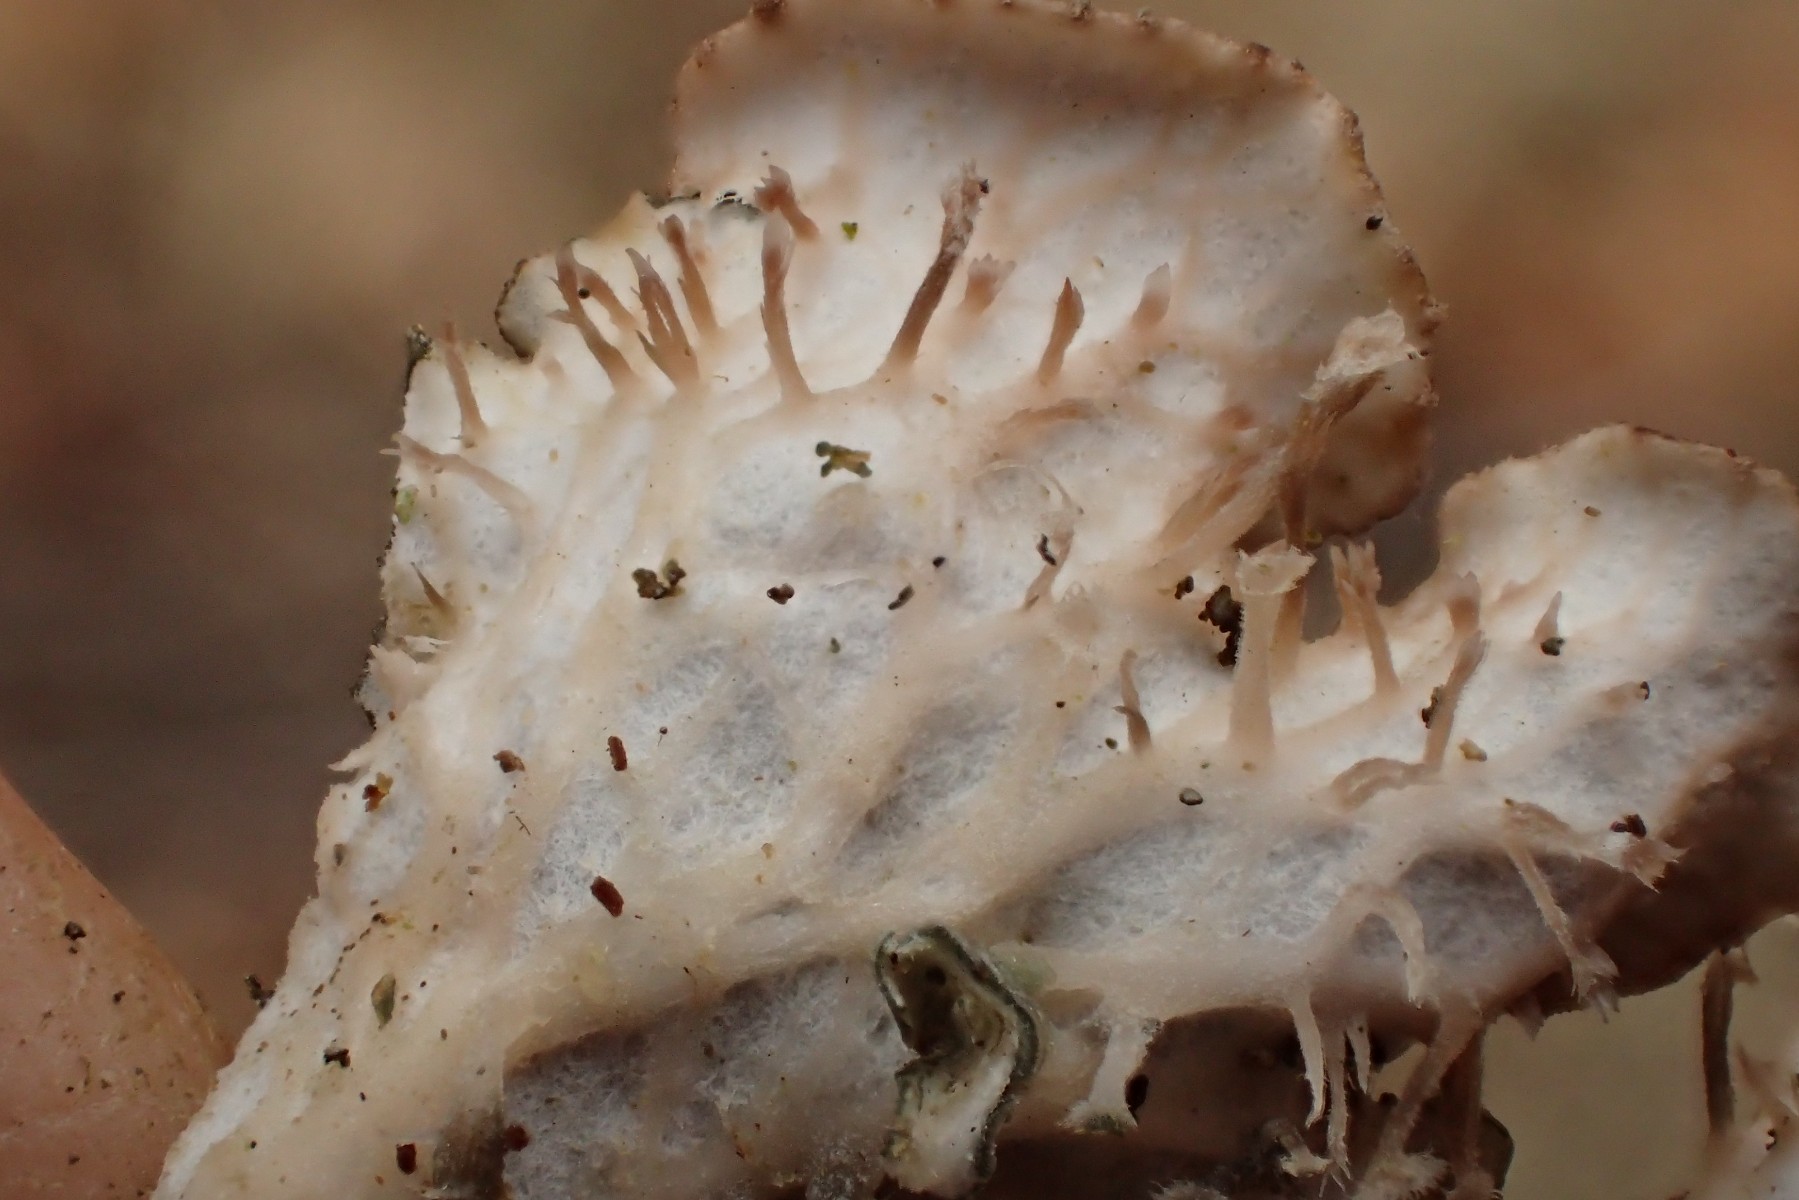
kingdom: Fungi
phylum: Ascomycota
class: Lecanoromycetes
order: Peltigerales
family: Peltigeraceae
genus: Peltigera
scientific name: Peltigera praetextata
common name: kruset skjoldlav
